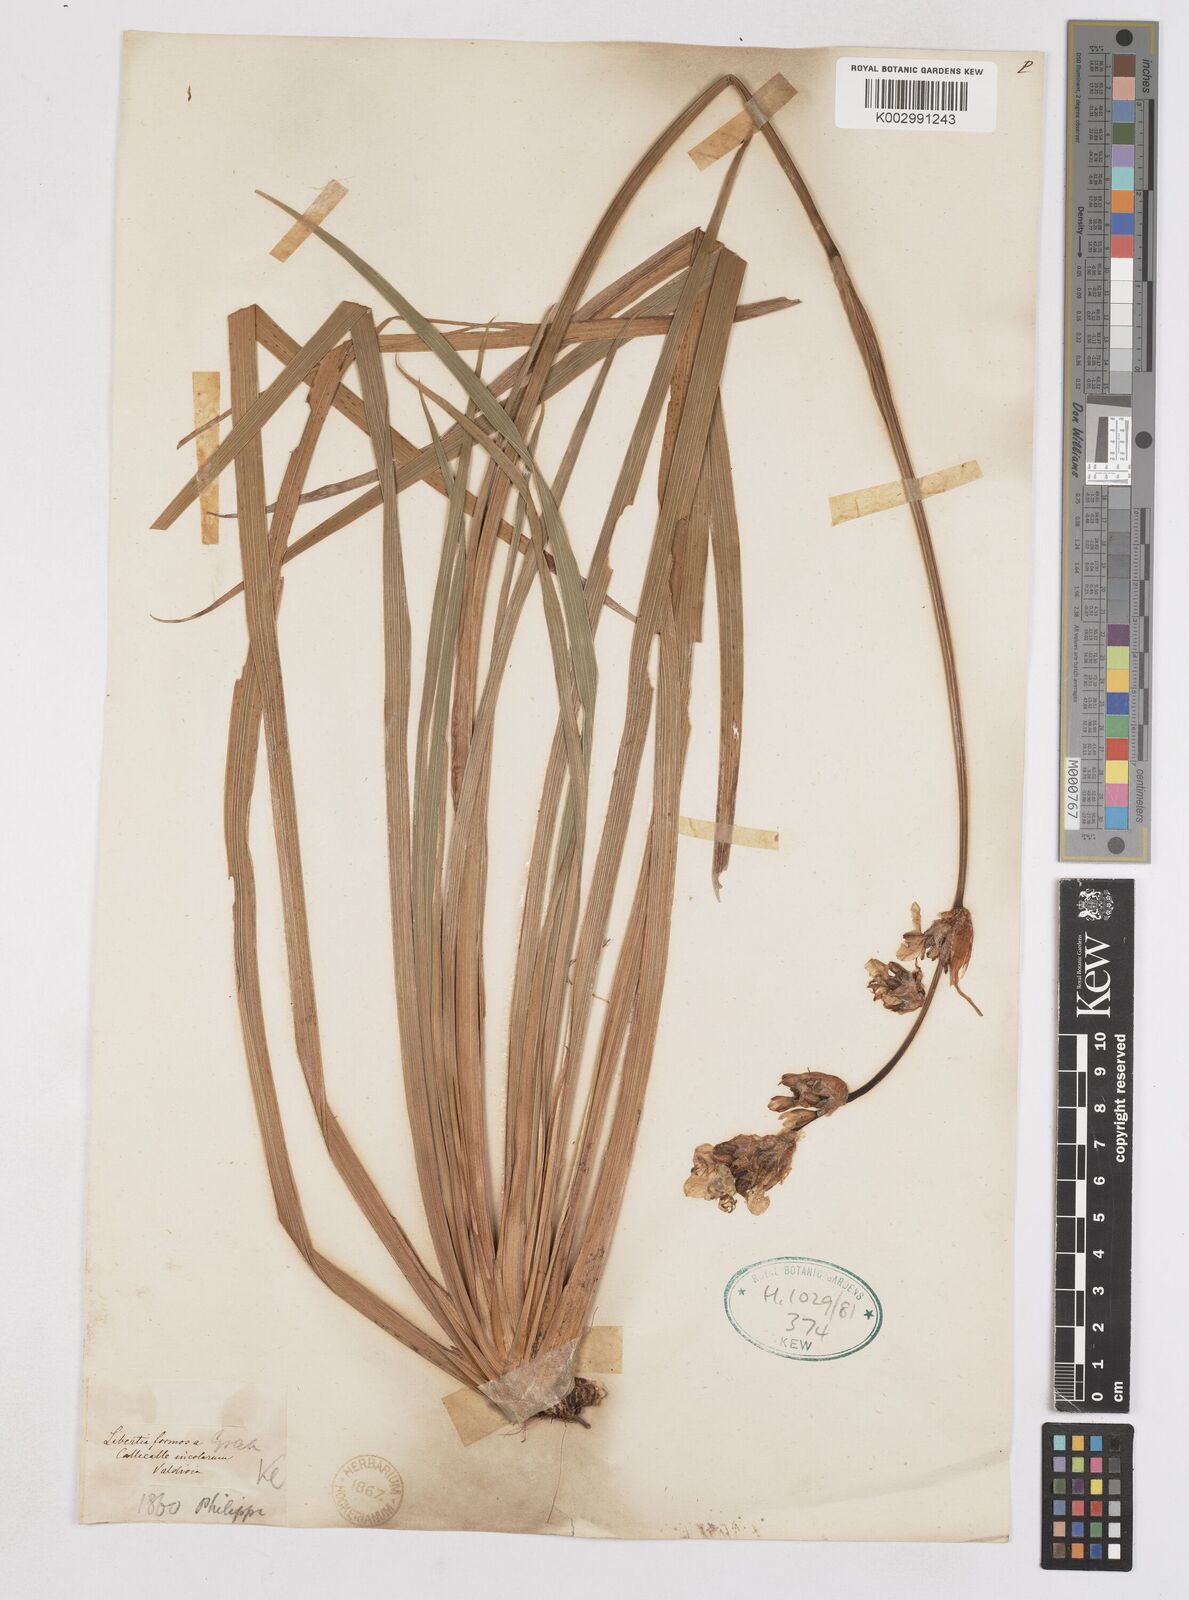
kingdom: Plantae
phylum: Tracheophyta
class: Liliopsida
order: Asparagales
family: Iridaceae
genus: Libertia
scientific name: Libertia chilensis
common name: Satin flower
